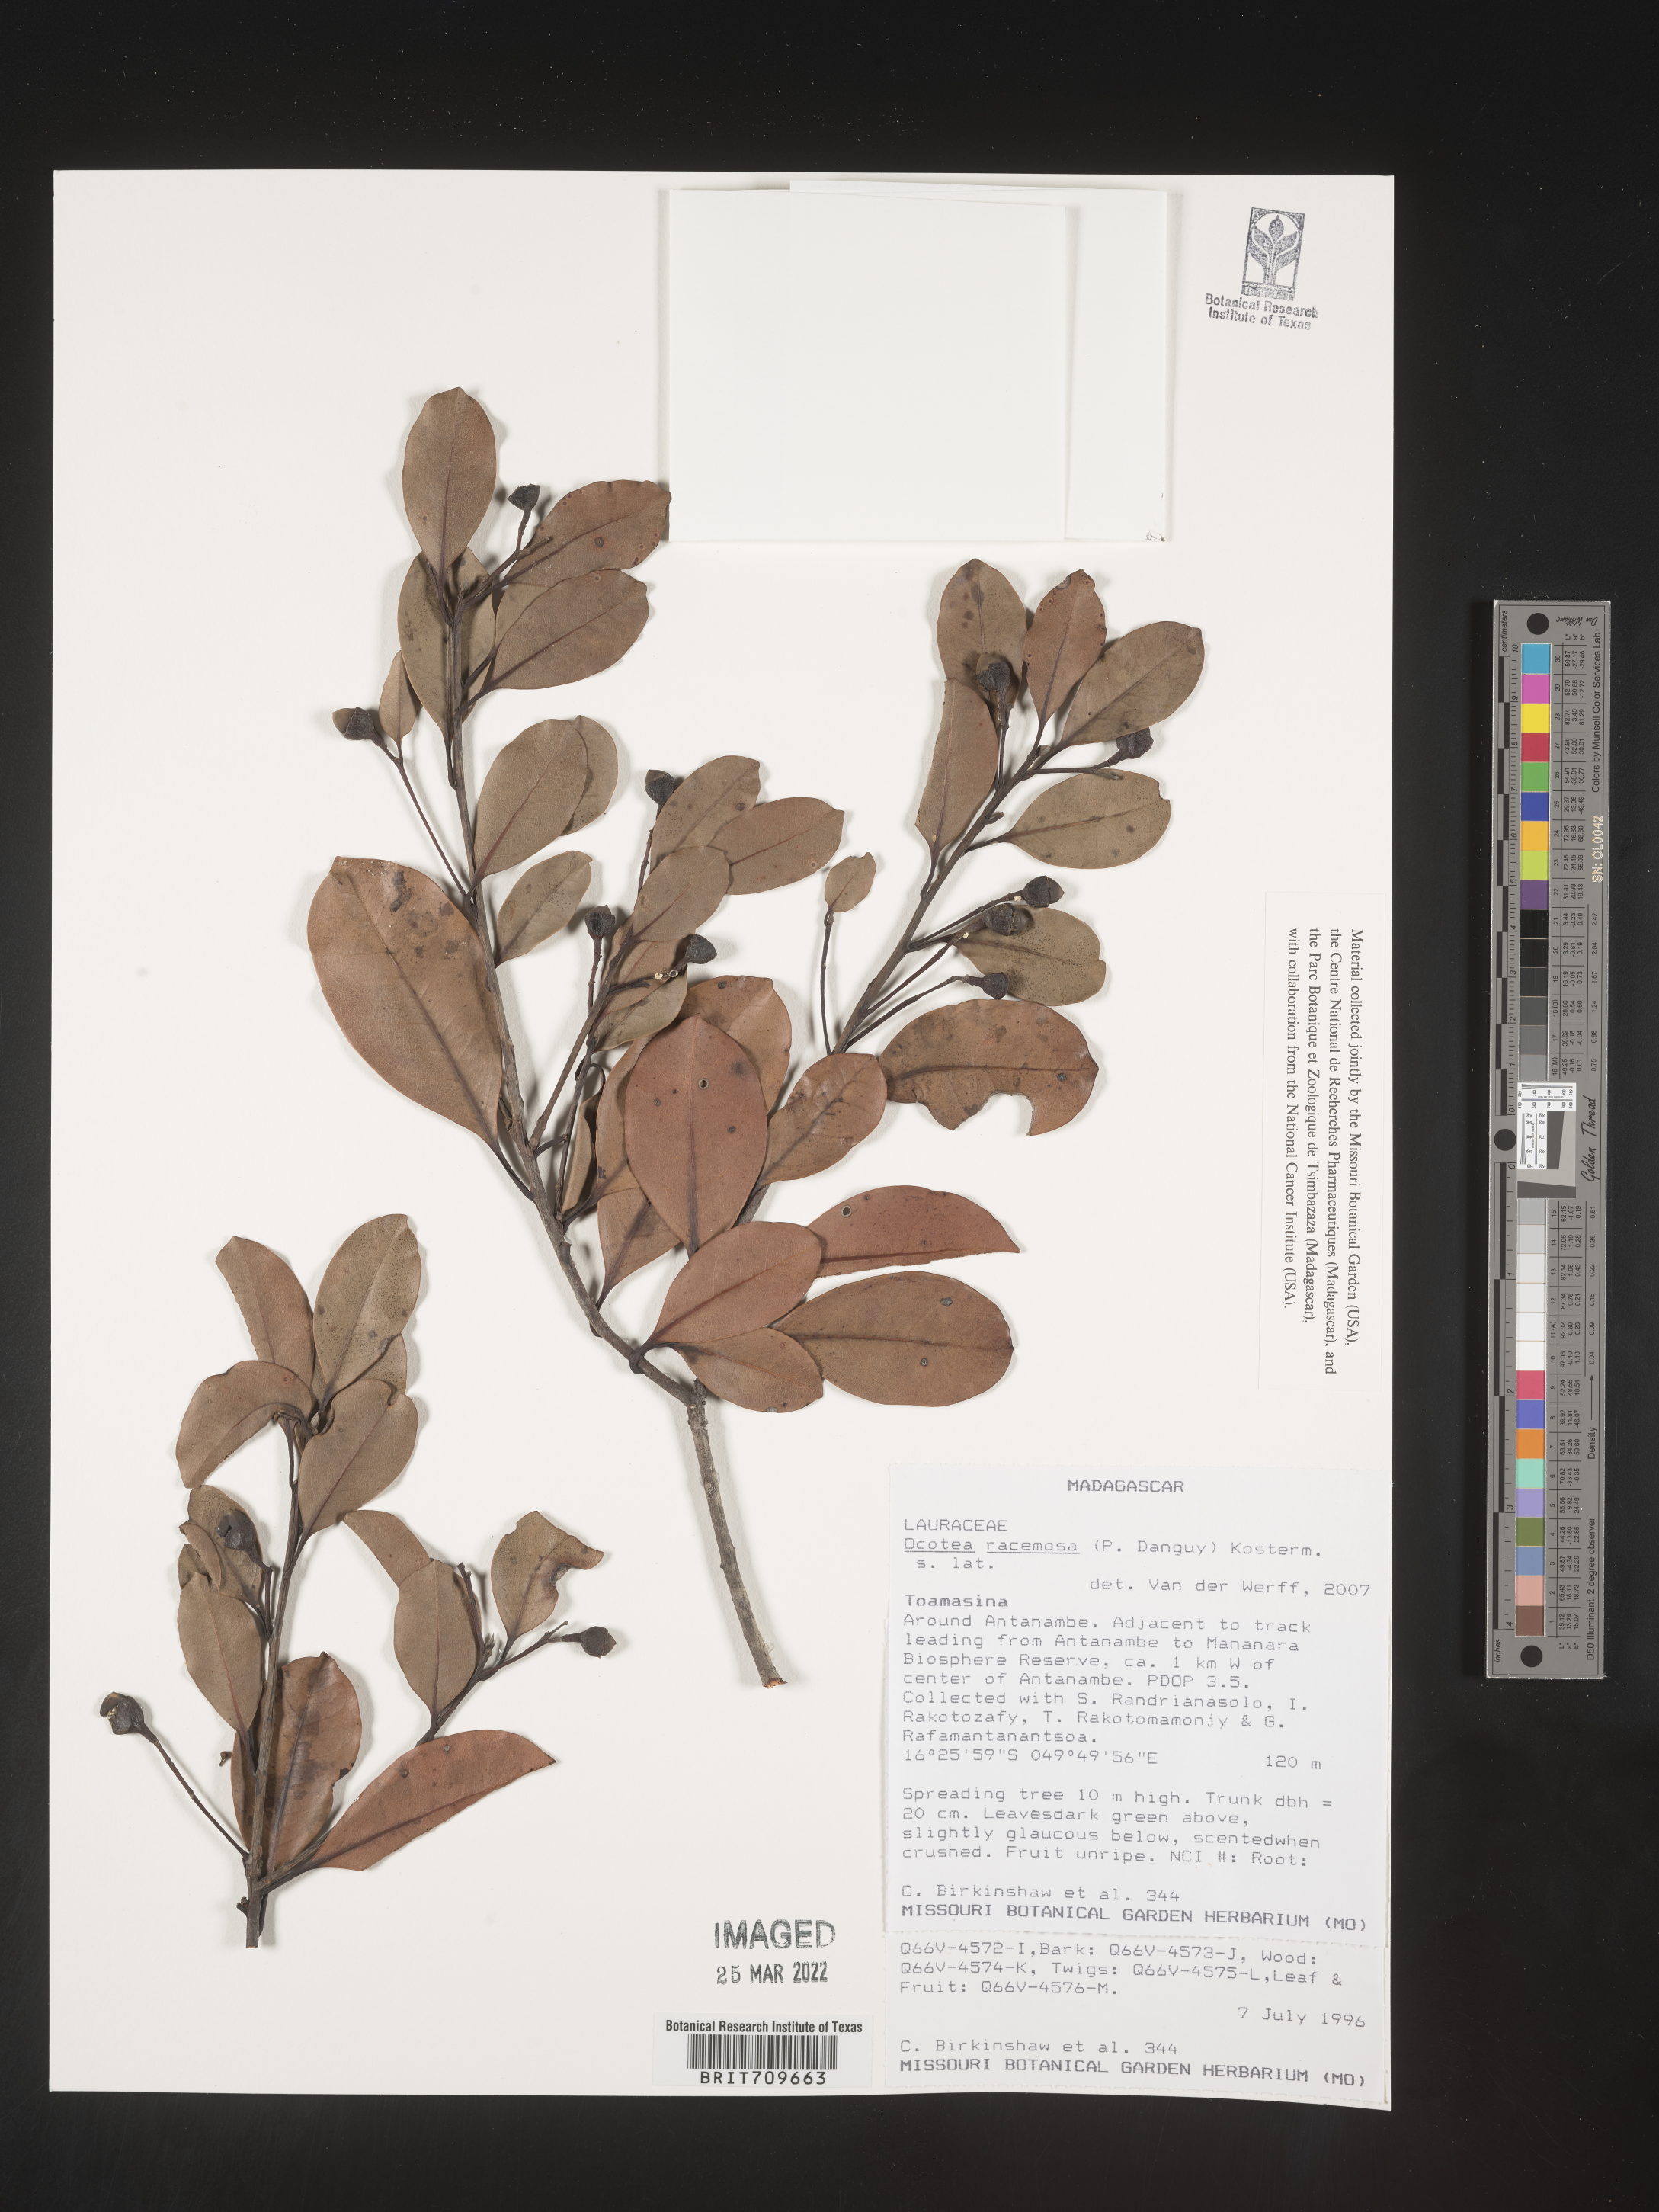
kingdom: Plantae
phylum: Tracheophyta
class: Magnoliopsida
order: Laurales
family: Lauraceae
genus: Ocotea
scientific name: Ocotea
